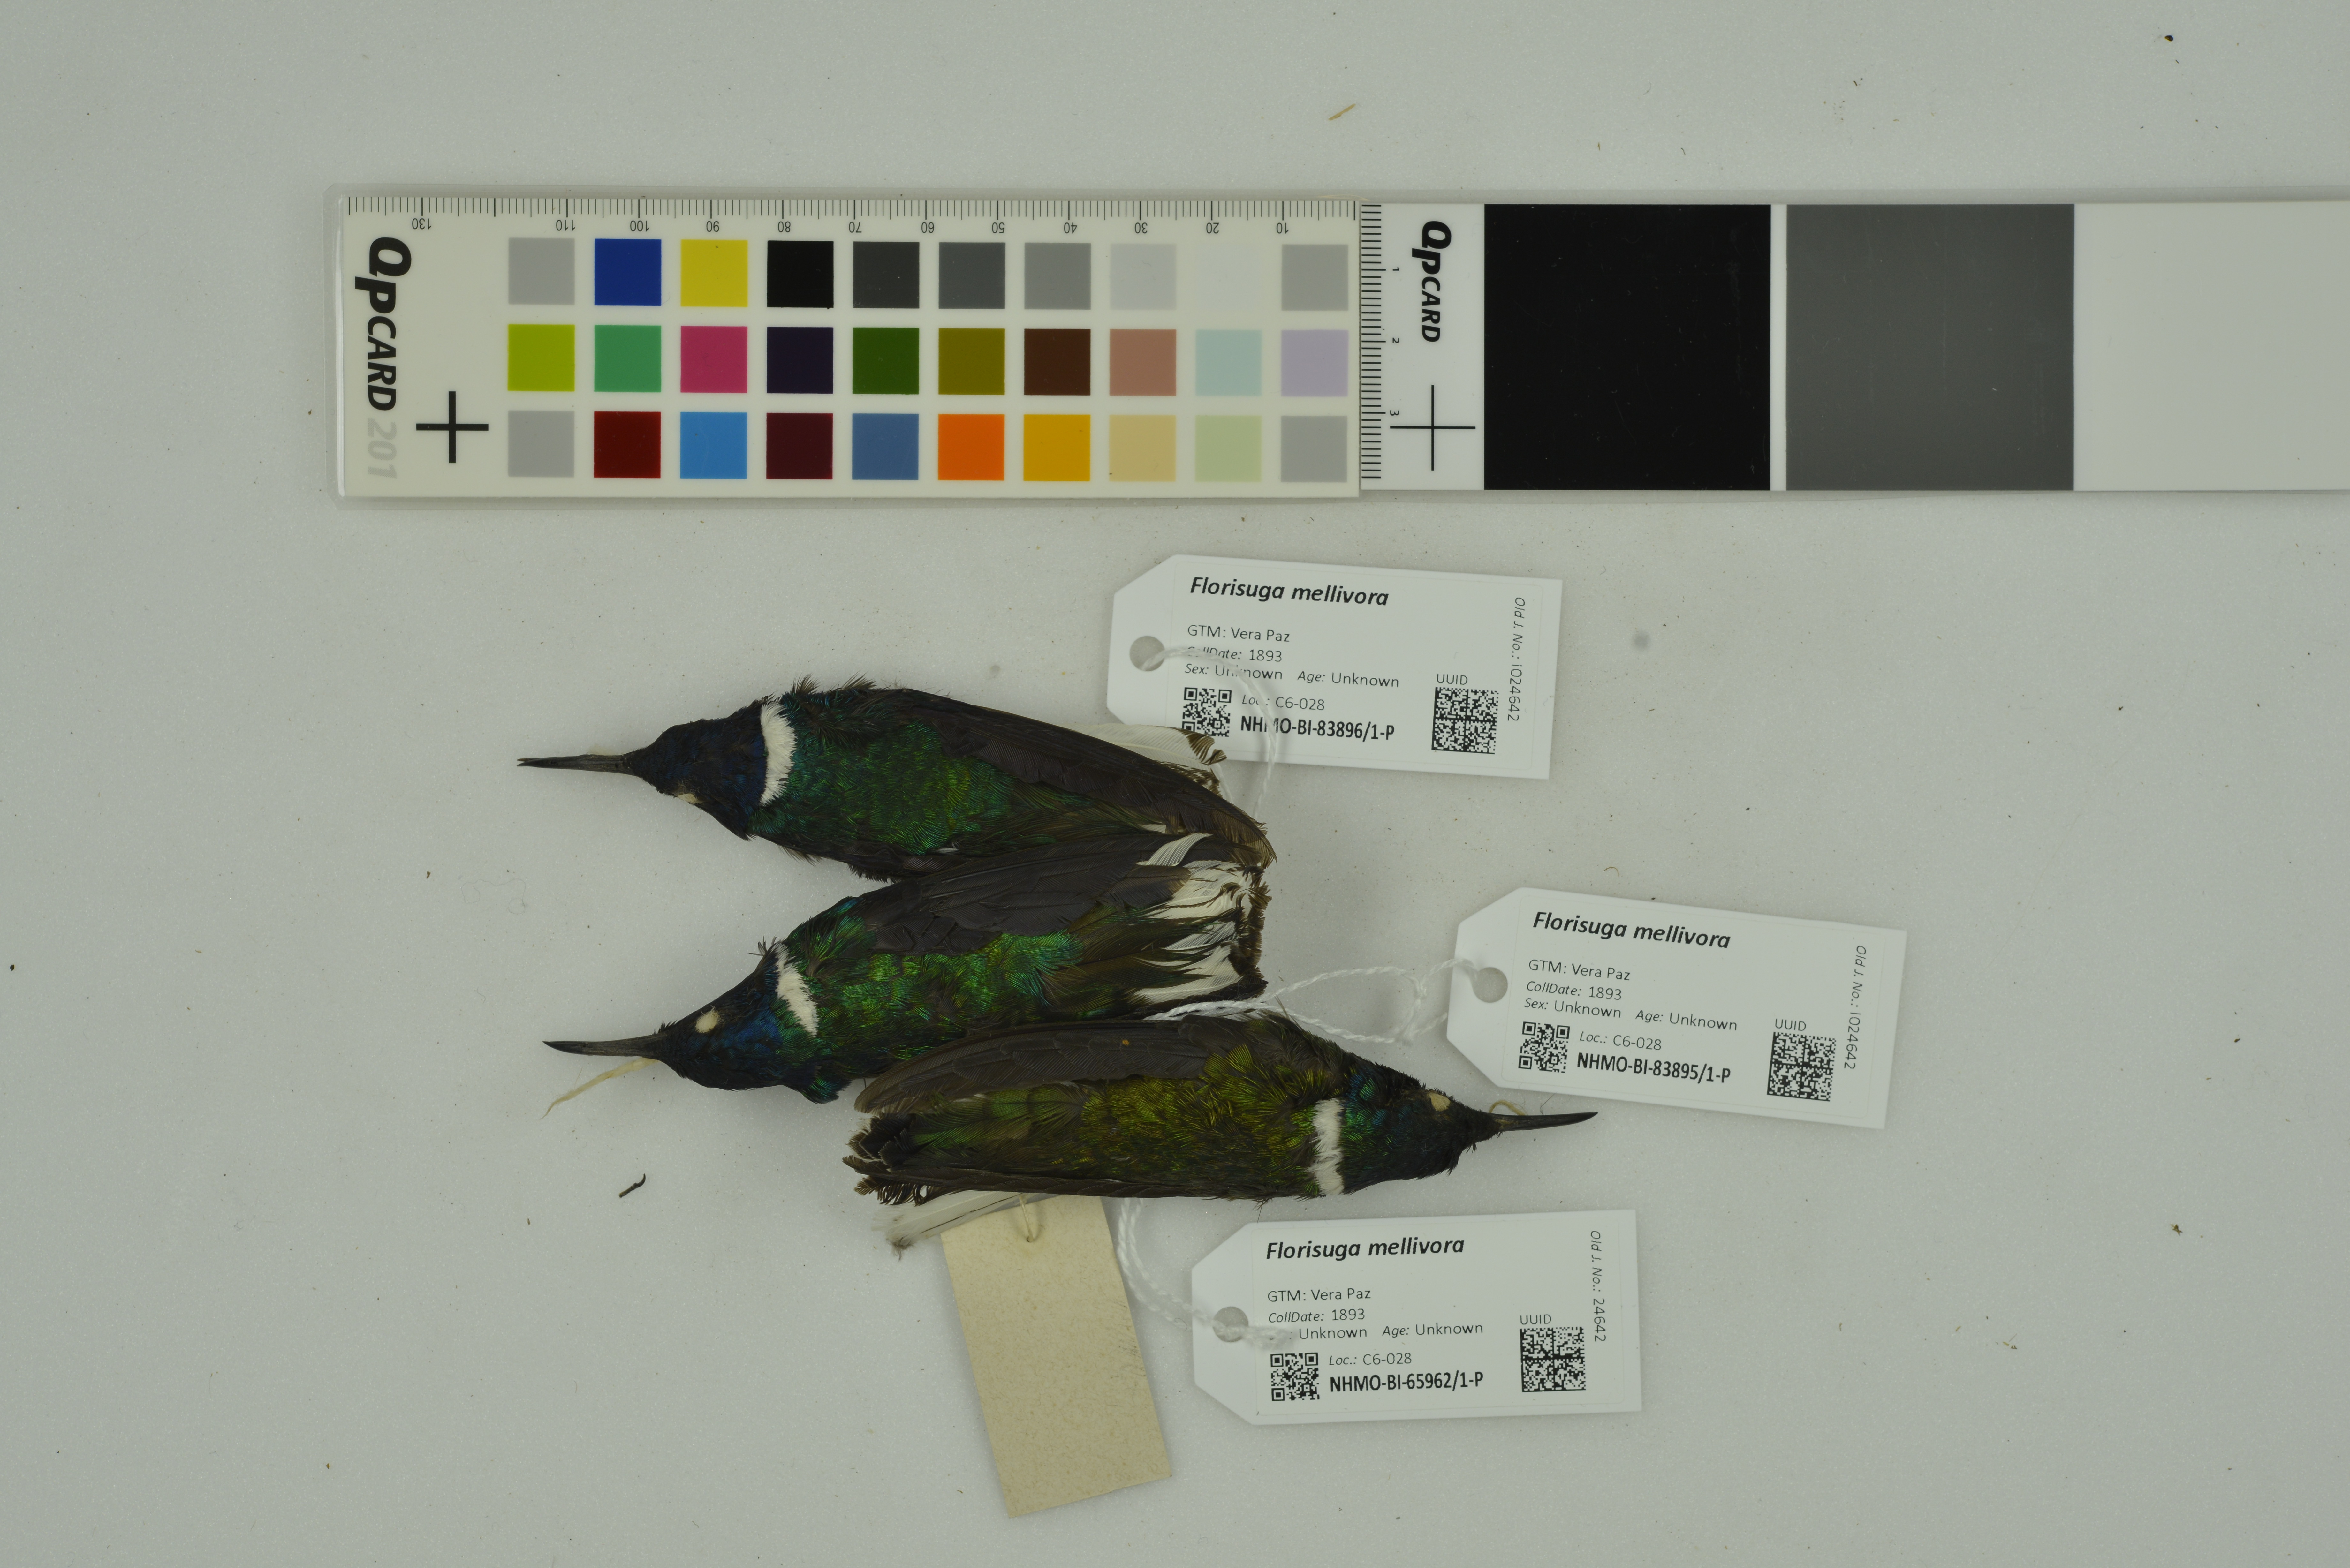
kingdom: Animalia
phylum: Chordata
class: Aves
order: Apodiformes
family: Trochilidae
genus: Florisuga
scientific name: Florisuga mellivora
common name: White-necked jacobin
